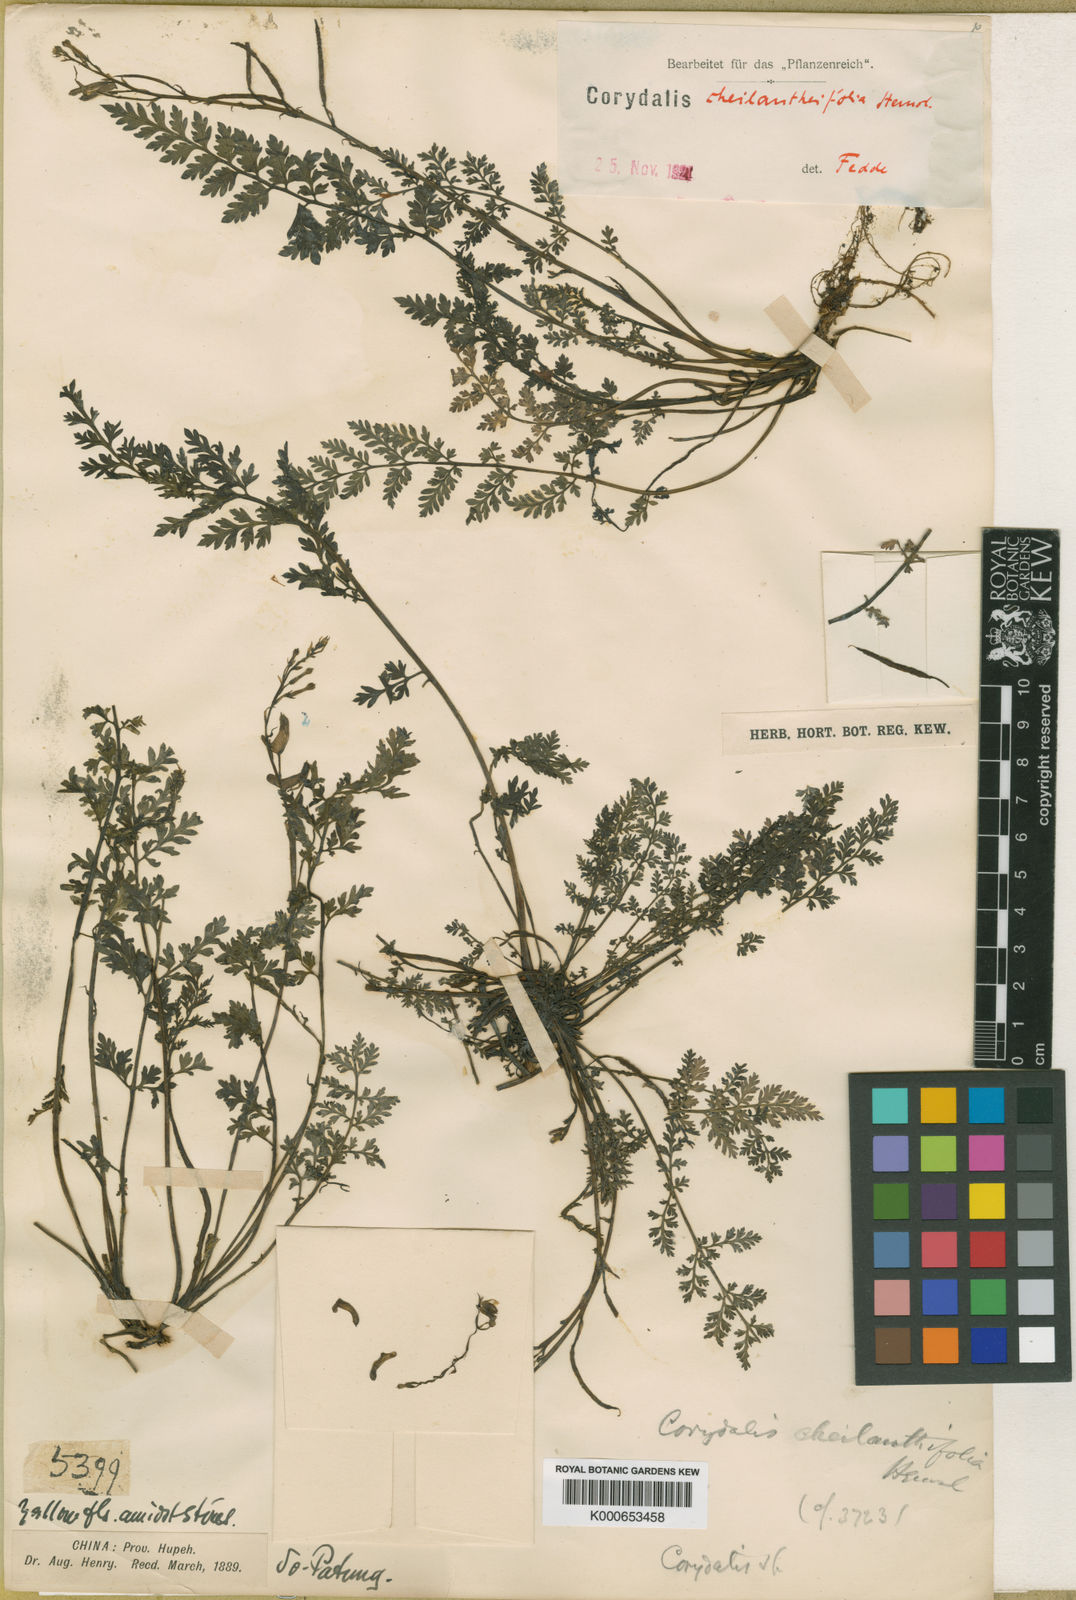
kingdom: Plantae
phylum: Tracheophyta
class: Magnoliopsida
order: Ranunculales
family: Papaveraceae
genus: Corydalis
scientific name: Corydalis cheilanthifolia
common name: Fern-leaved corydalis
